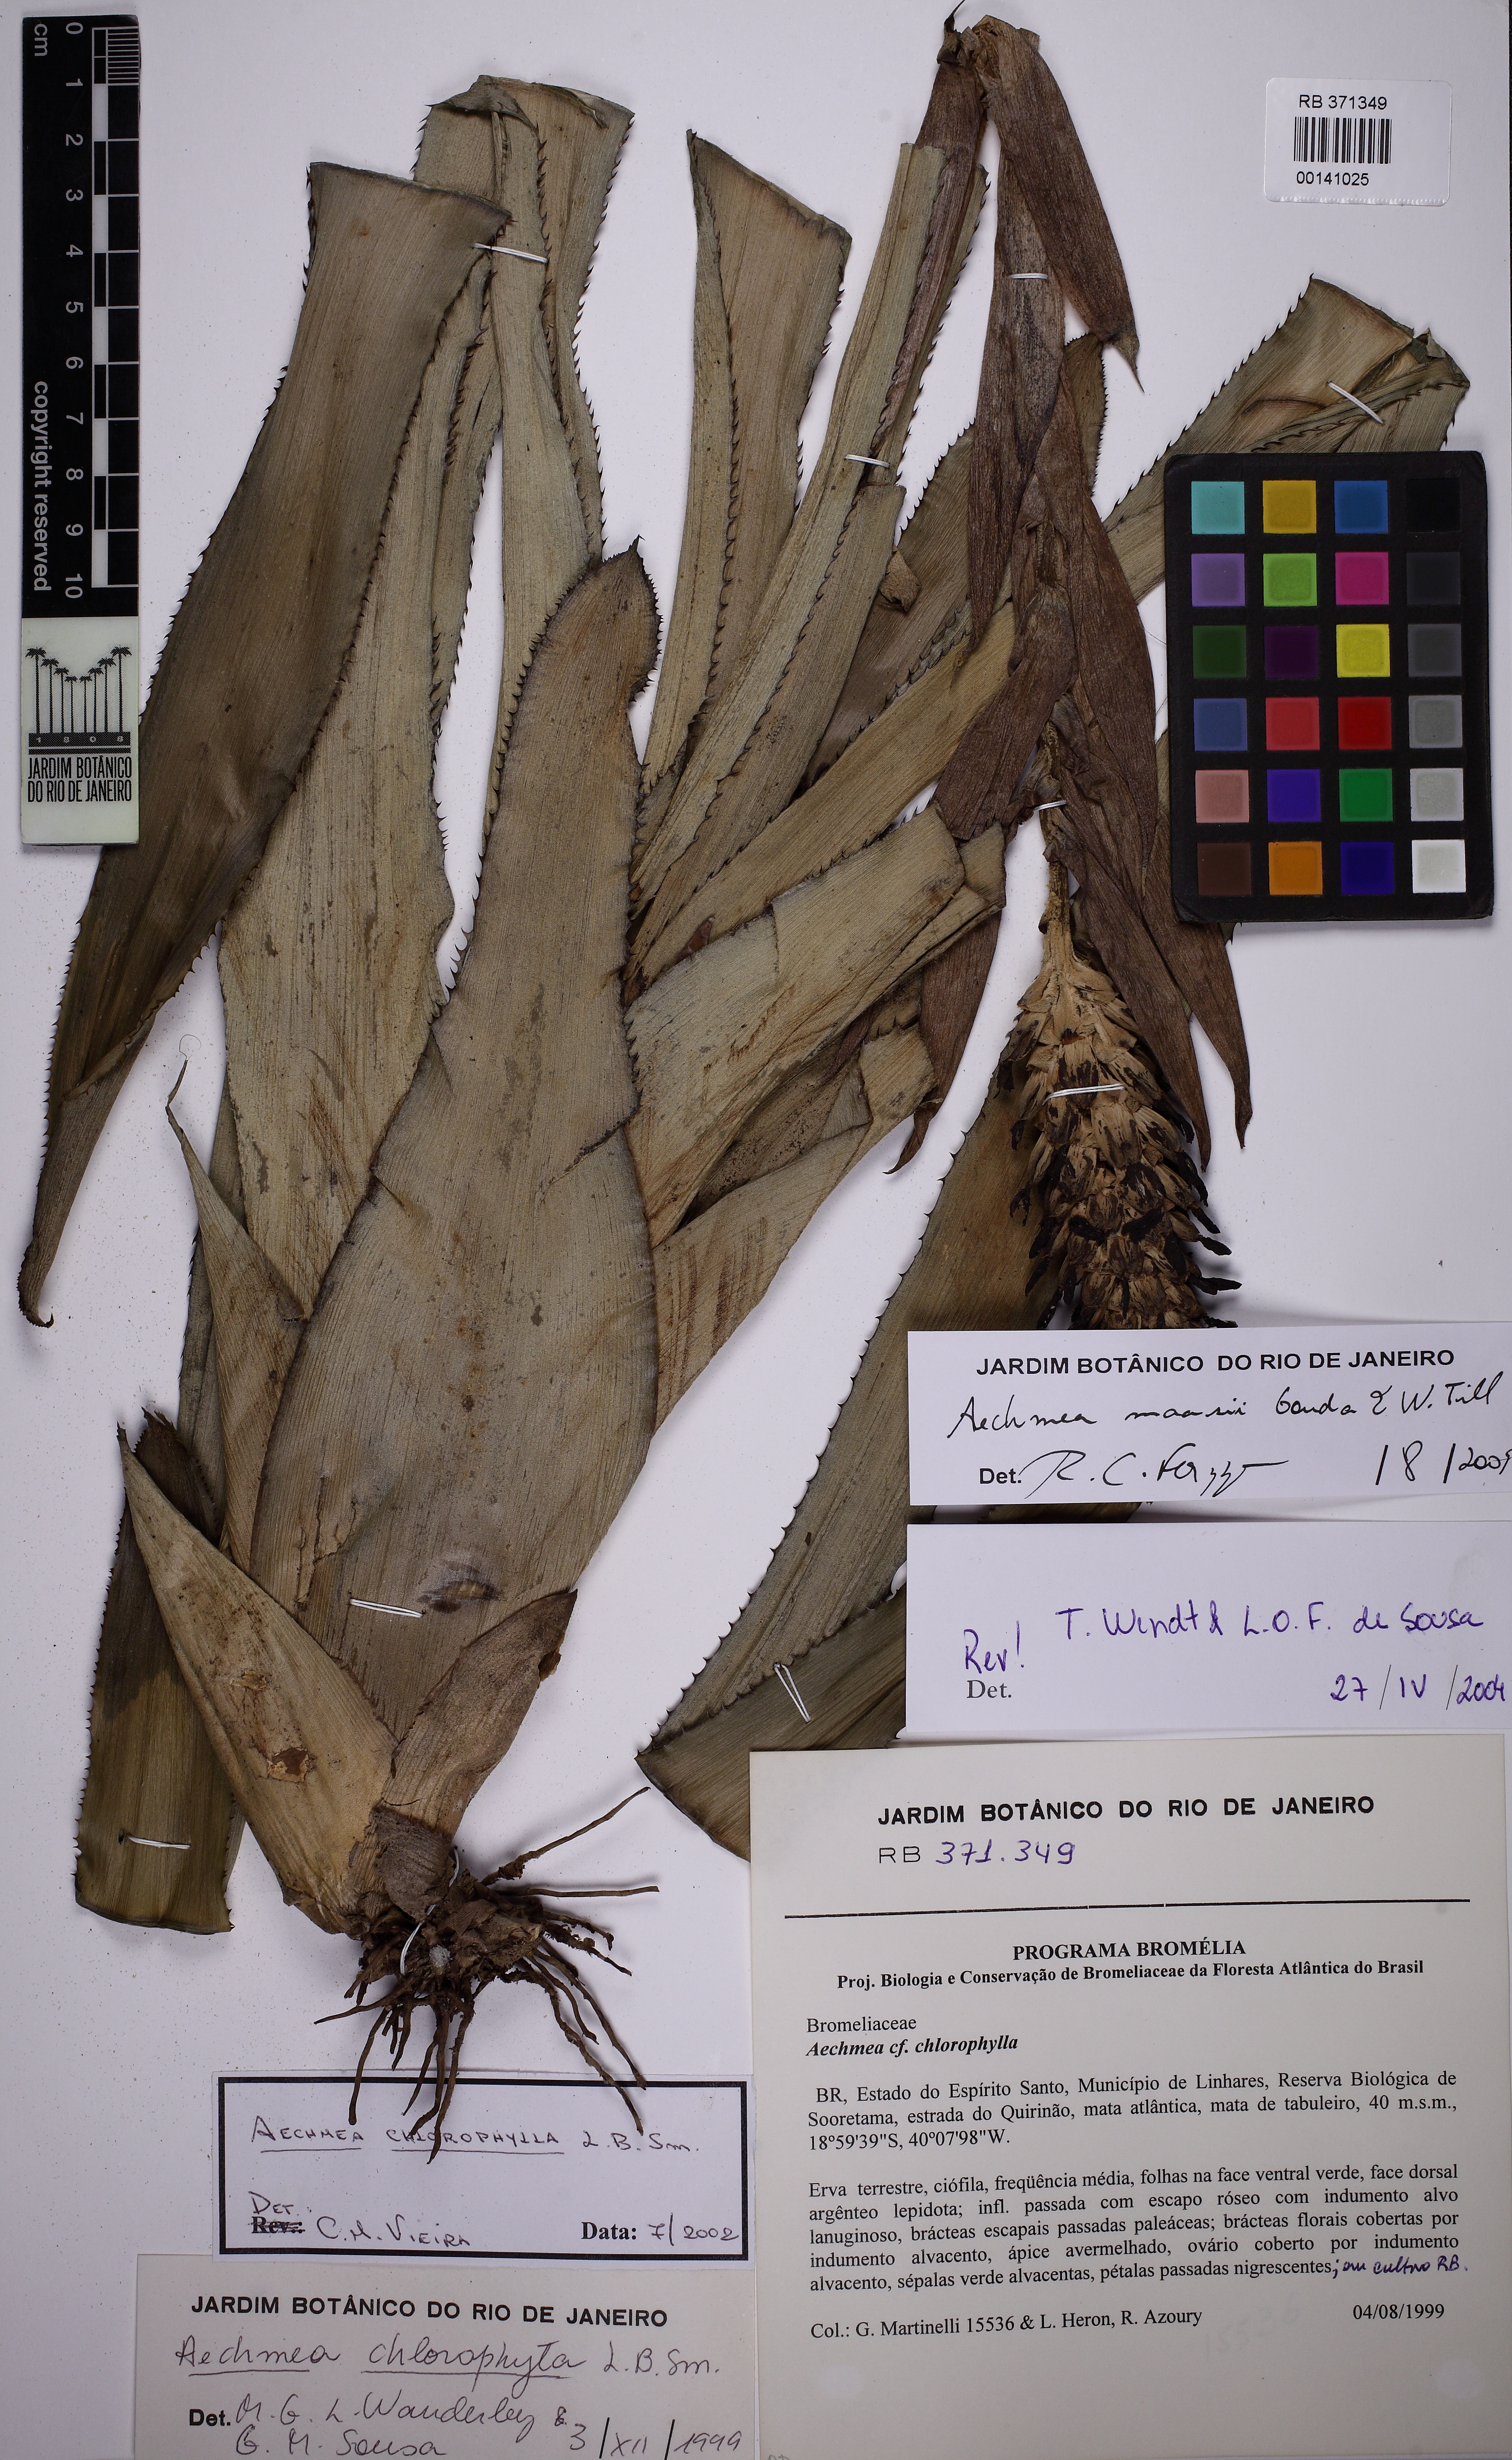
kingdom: Plantae
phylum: Tracheophyta
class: Liliopsida
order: Poales
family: Bromeliaceae
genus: Aechmea
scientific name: Aechmea maasii
